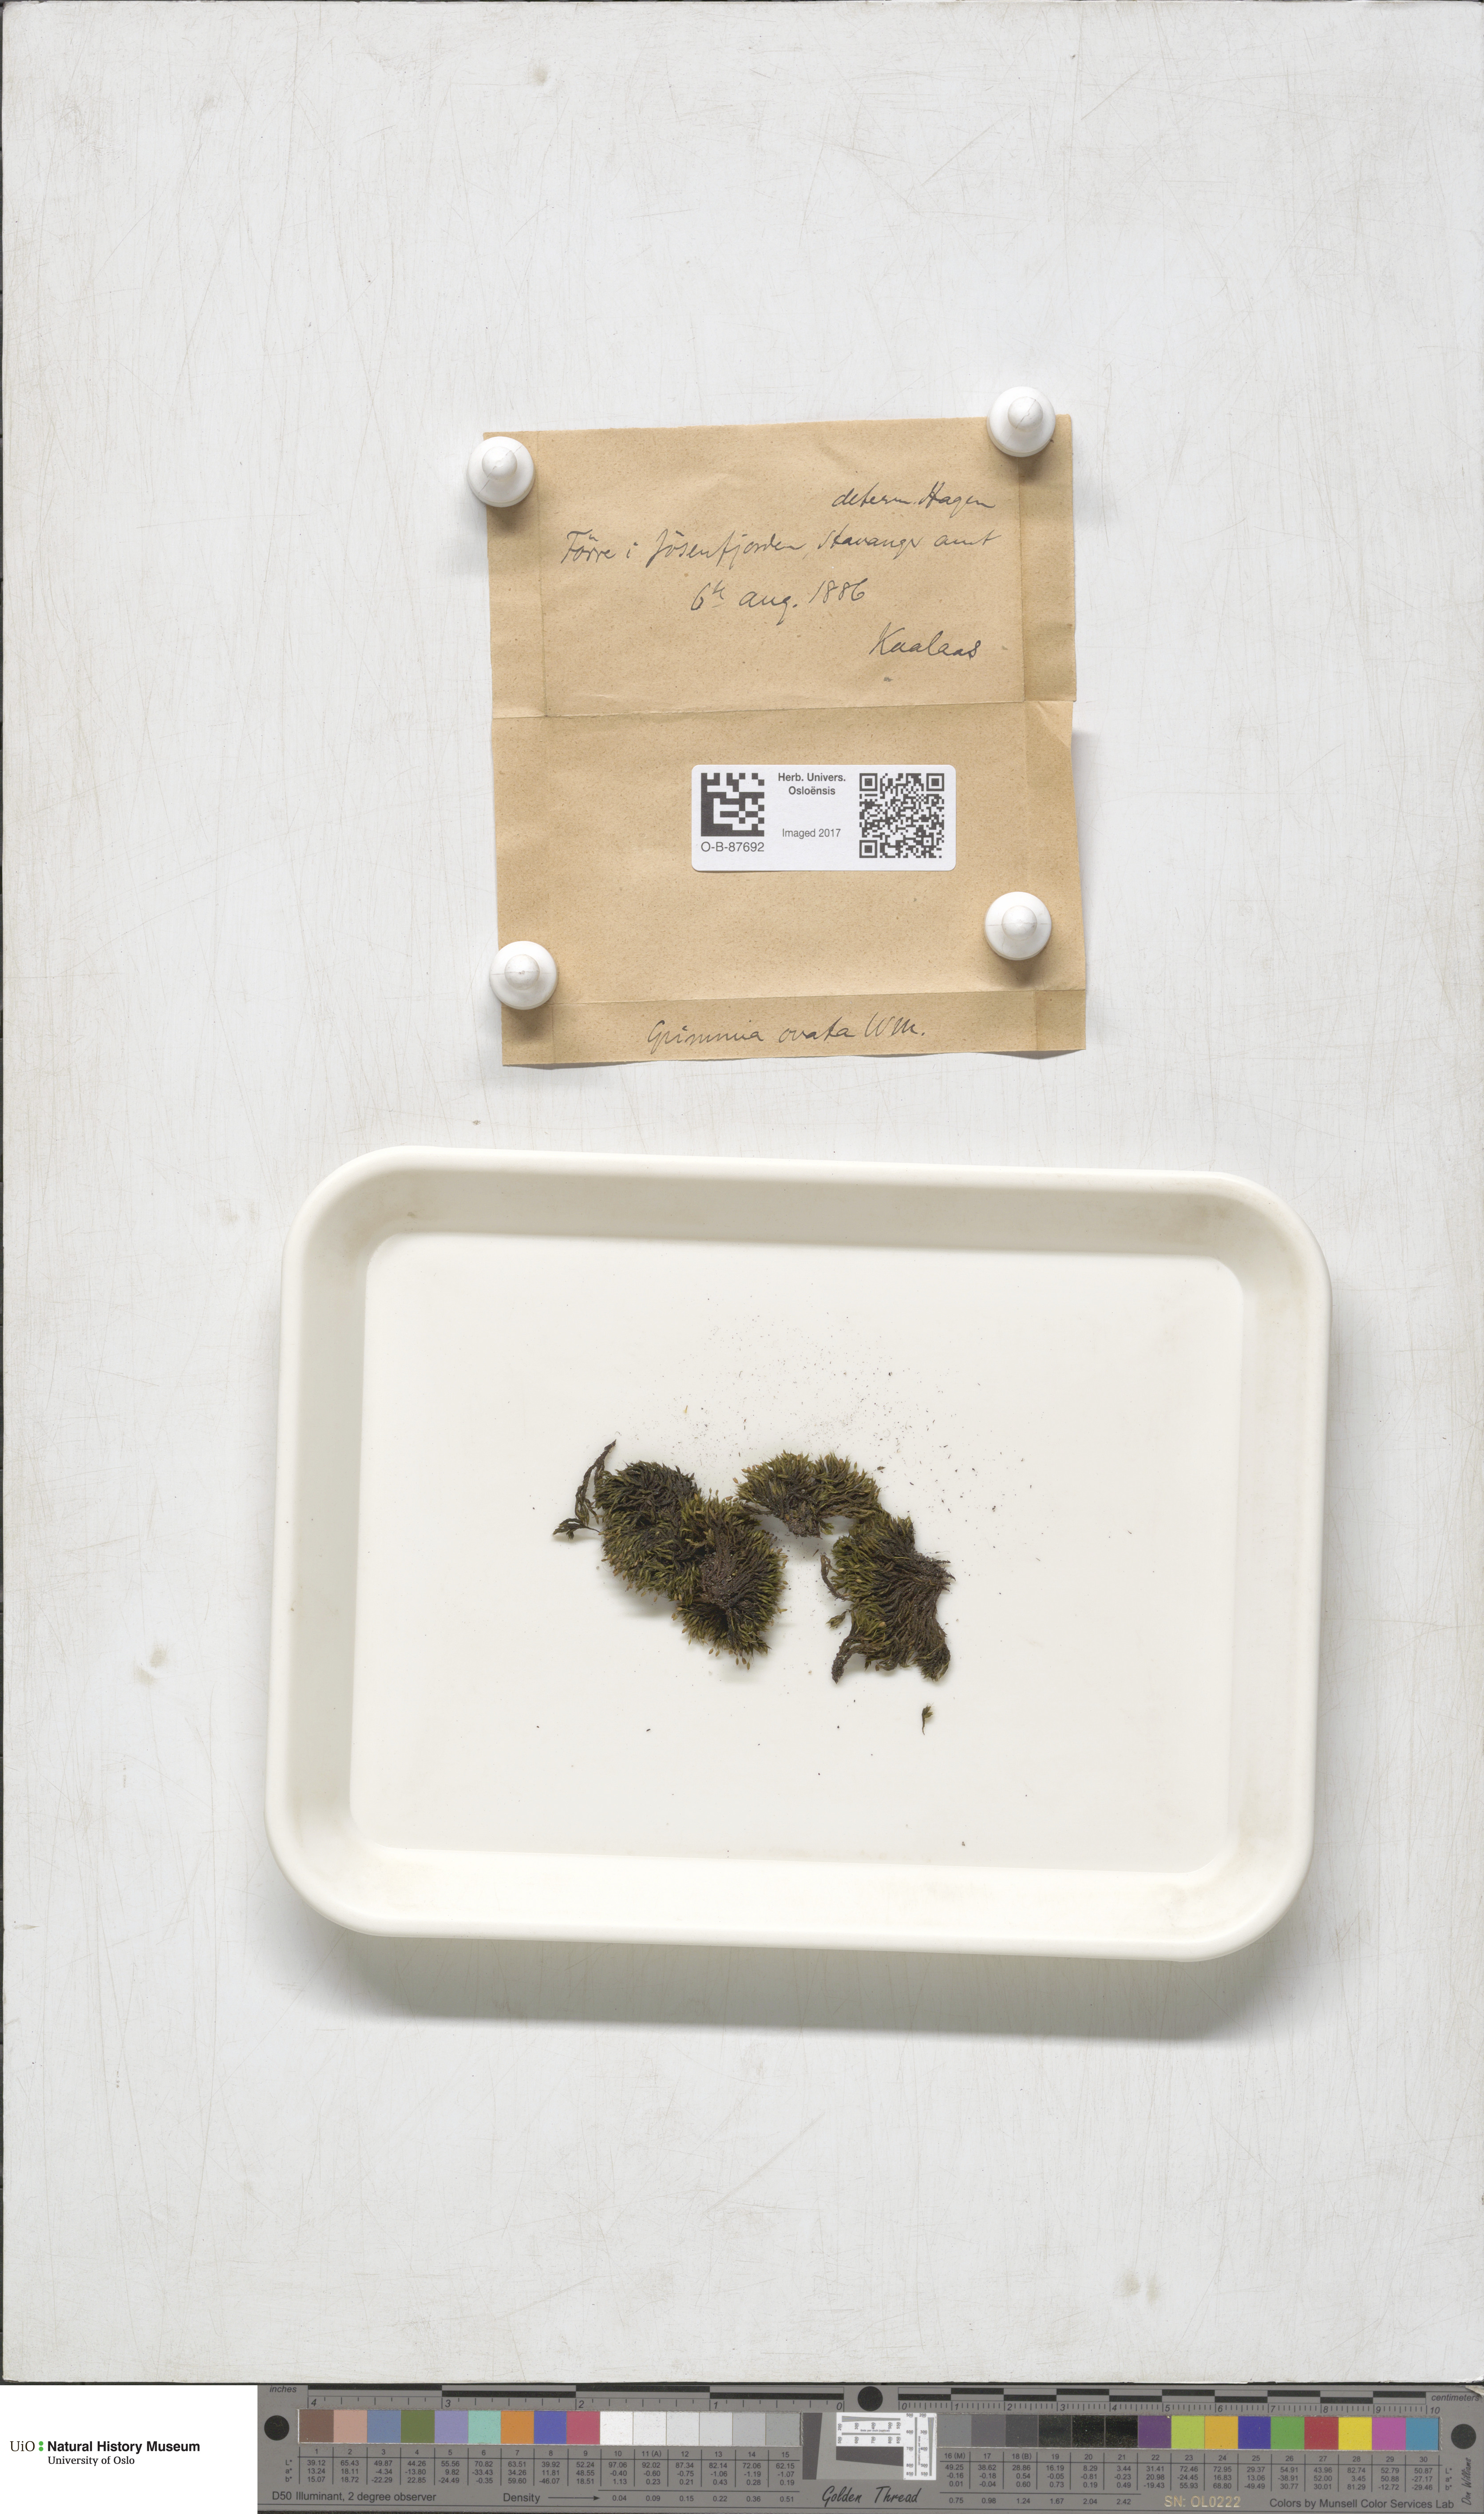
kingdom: Plantae
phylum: Bryophyta
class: Bryopsida
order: Grimmiales
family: Grimmiaceae
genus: Grimmia
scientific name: Grimmia ovalis
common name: Oval grimmia
